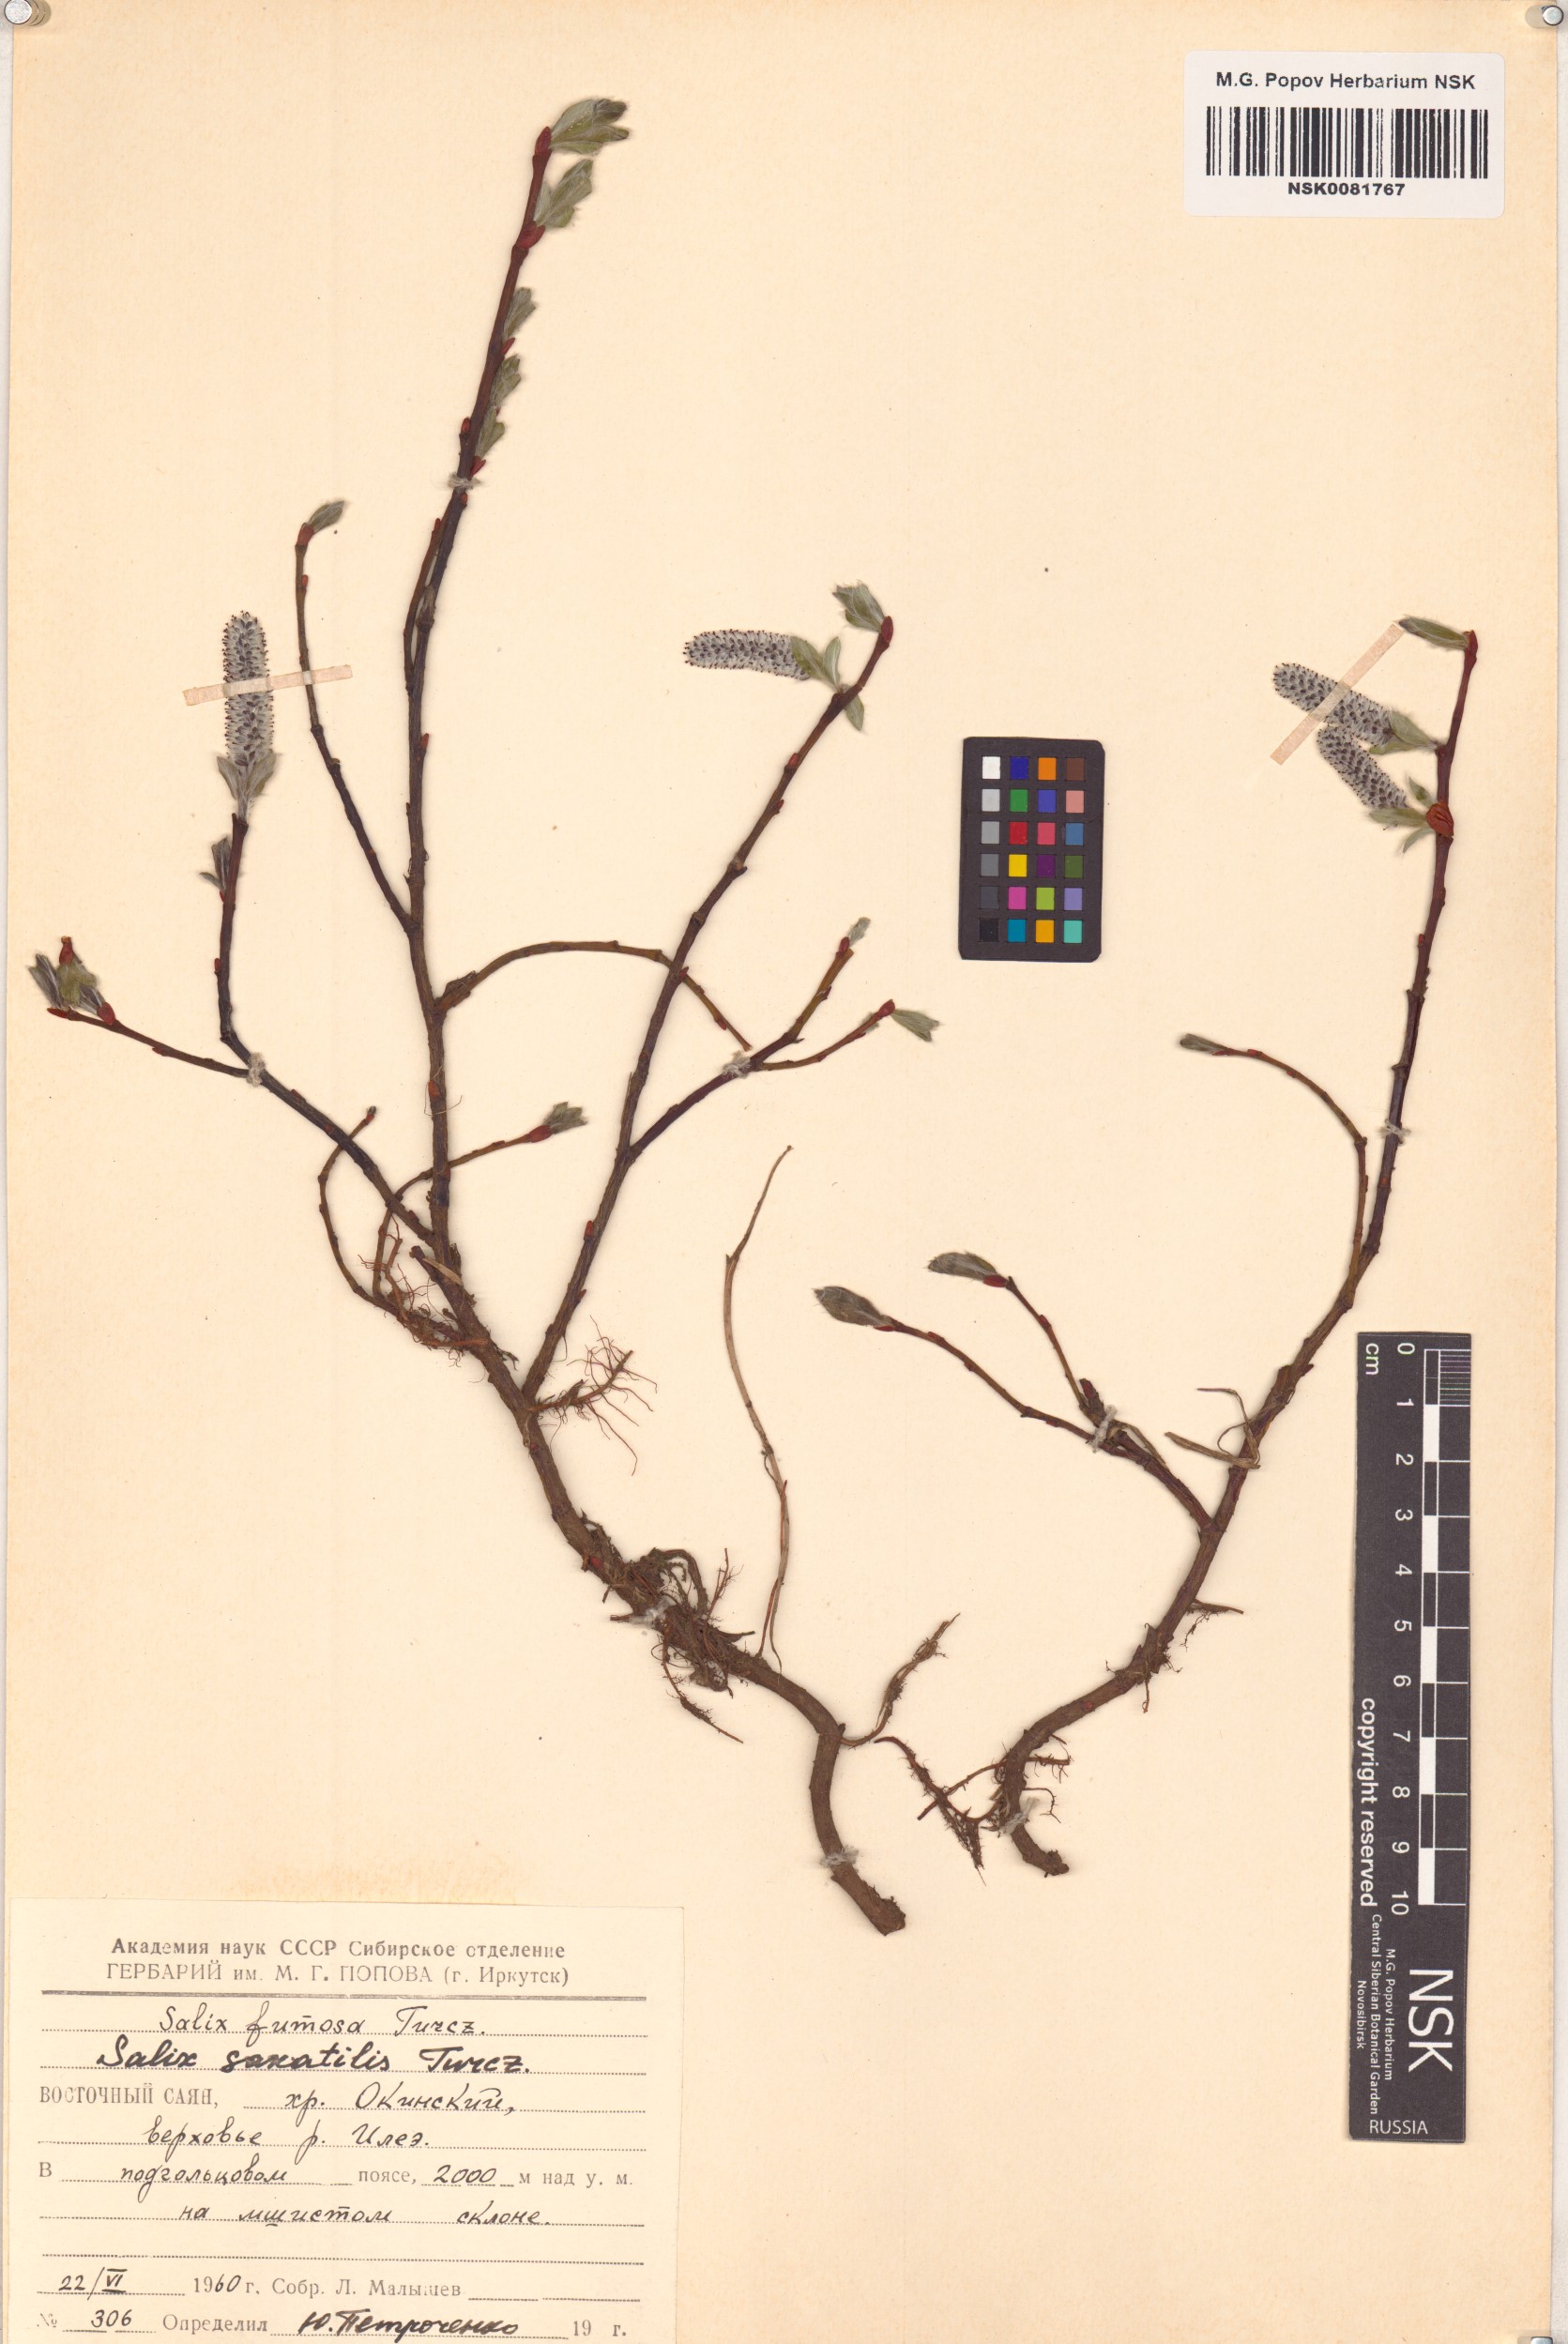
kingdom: Plantae
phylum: Tracheophyta
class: Magnoliopsida
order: Malpighiales
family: Salicaceae
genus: Salix
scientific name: Salix saxatilis
